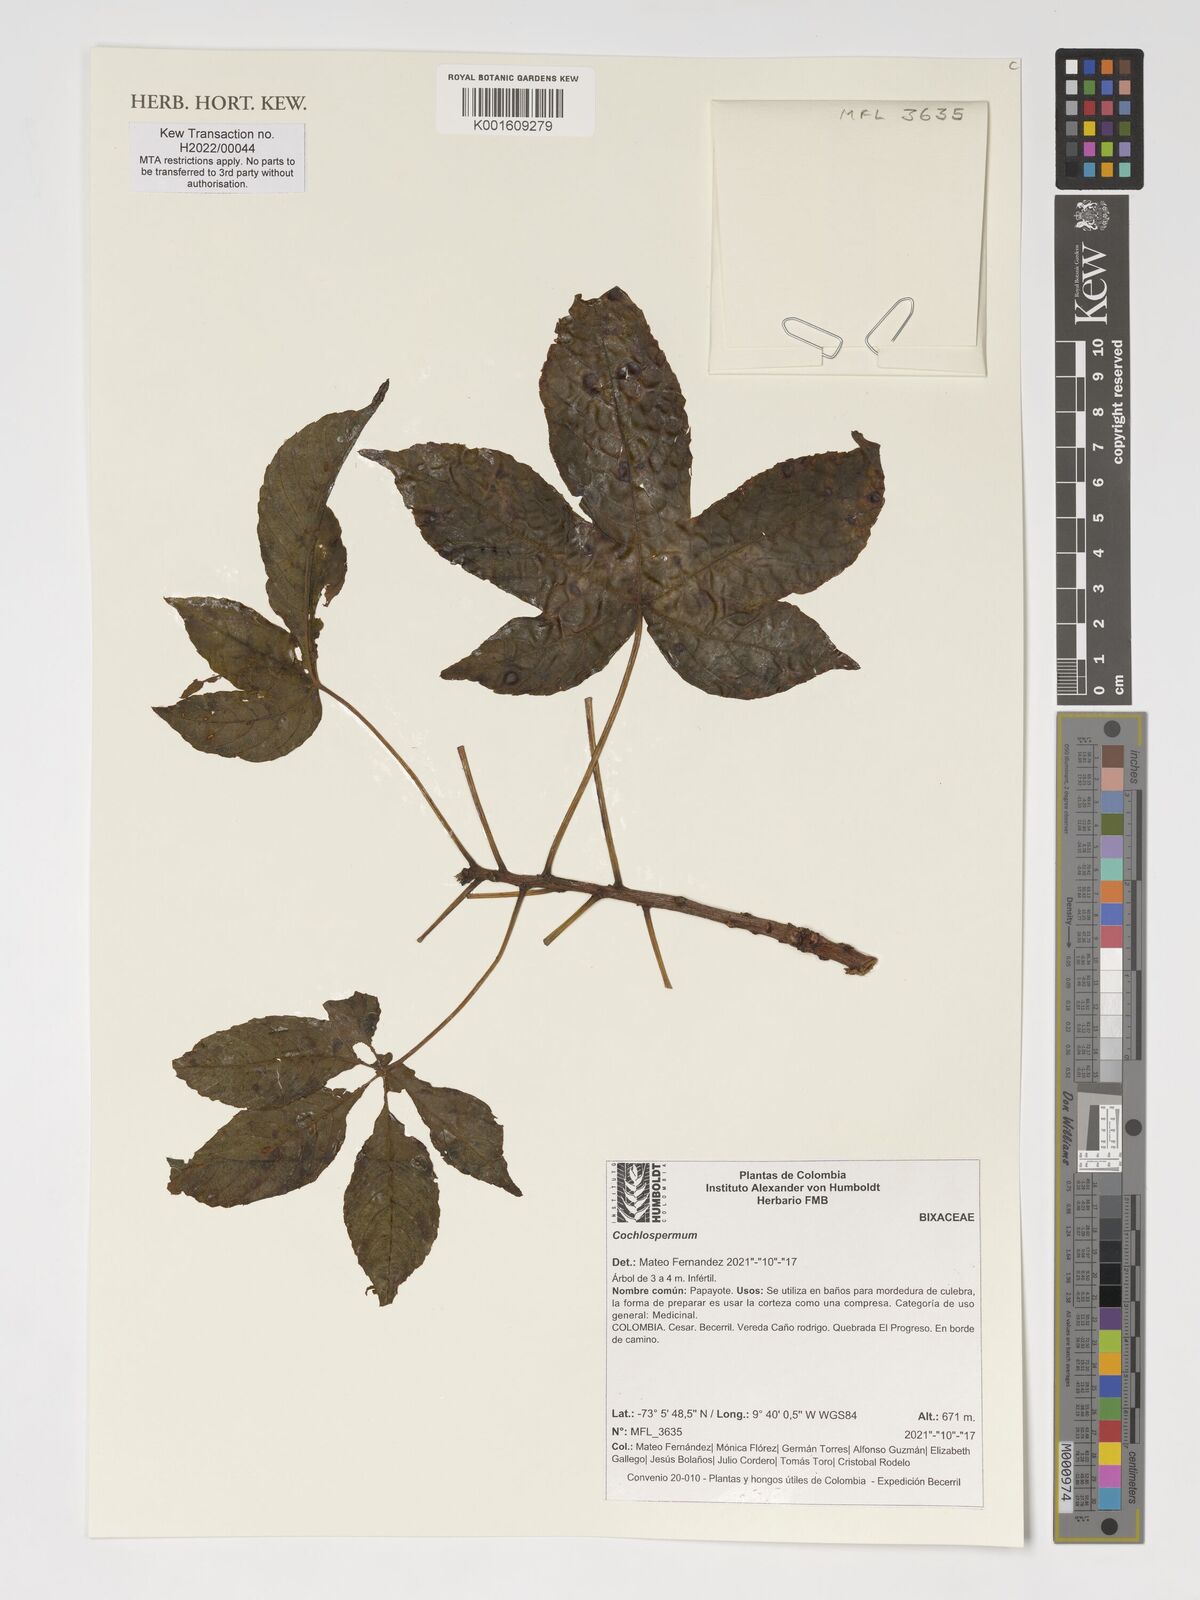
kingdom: Plantae
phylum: Tracheophyta
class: Magnoliopsida
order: Malvales
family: Cochlospermaceae
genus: Cochlospermum
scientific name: Cochlospermum
